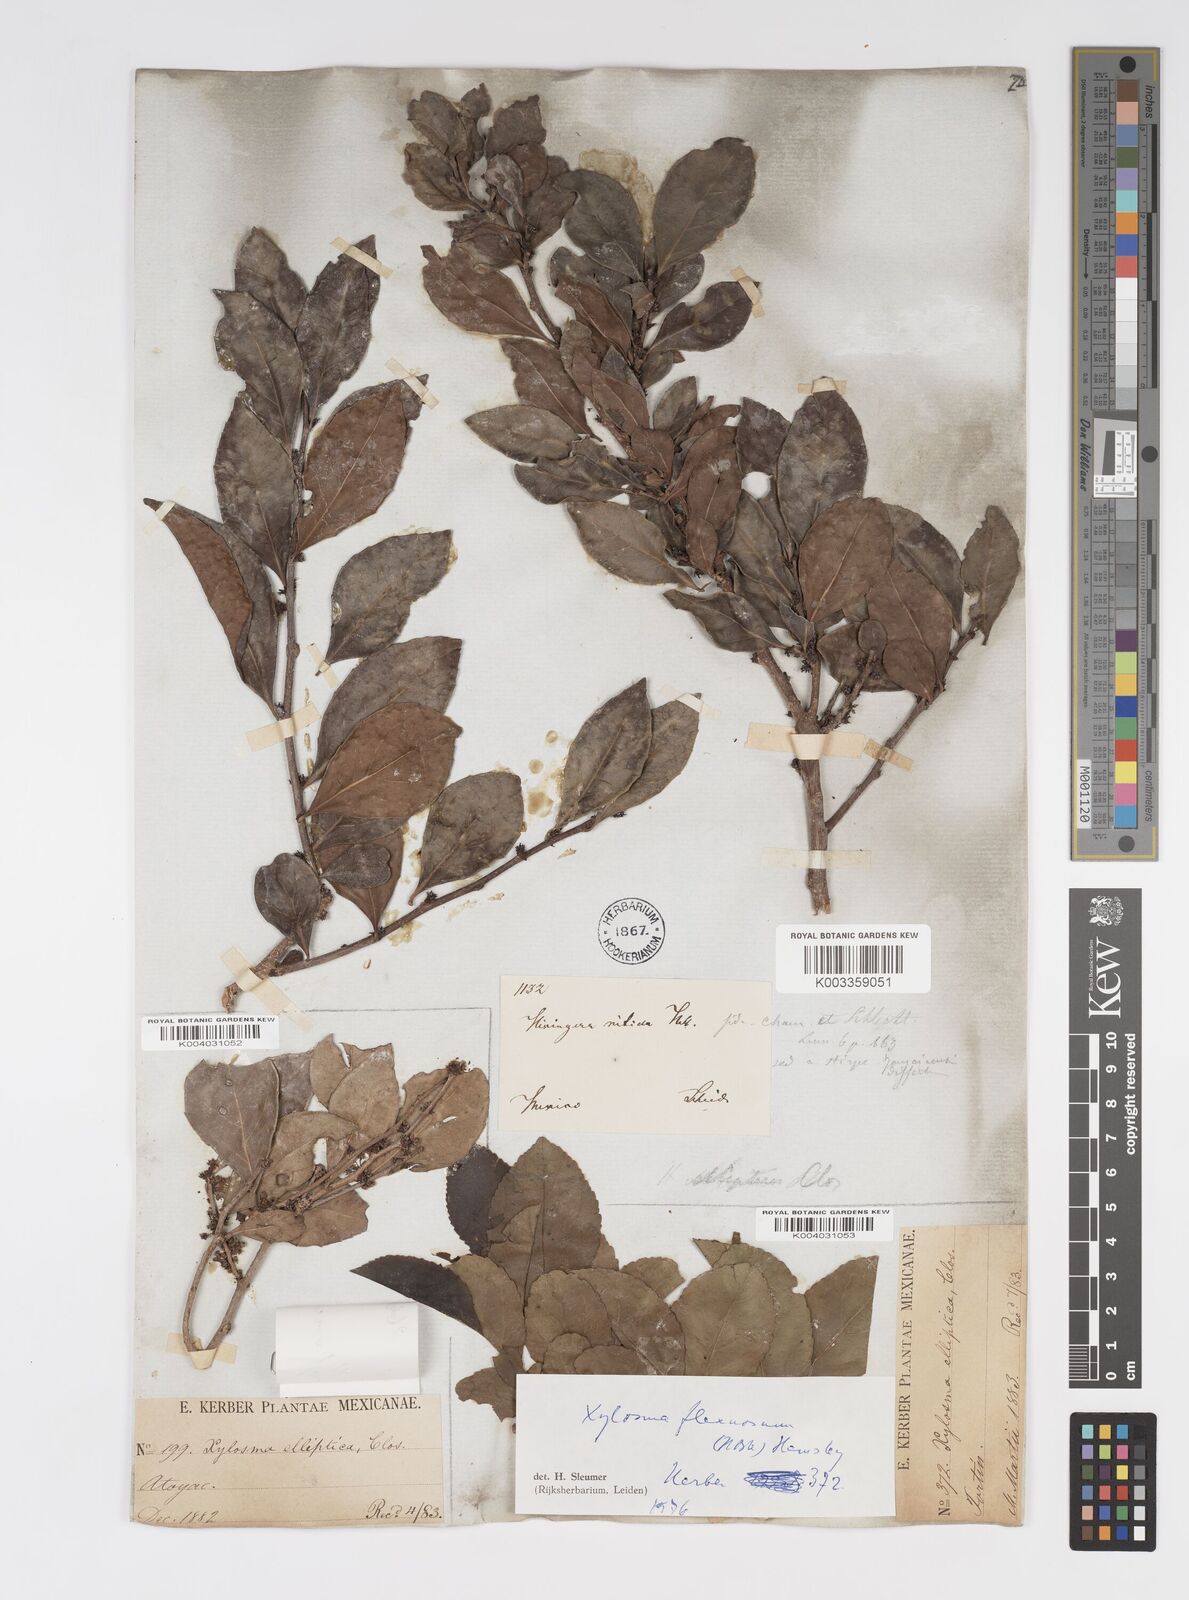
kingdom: Plantae
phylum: Tracheophyta
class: Magnoliopsida
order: Malpighiales
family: Salicaceae
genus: Xylosma
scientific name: Xylosma flexuosa
